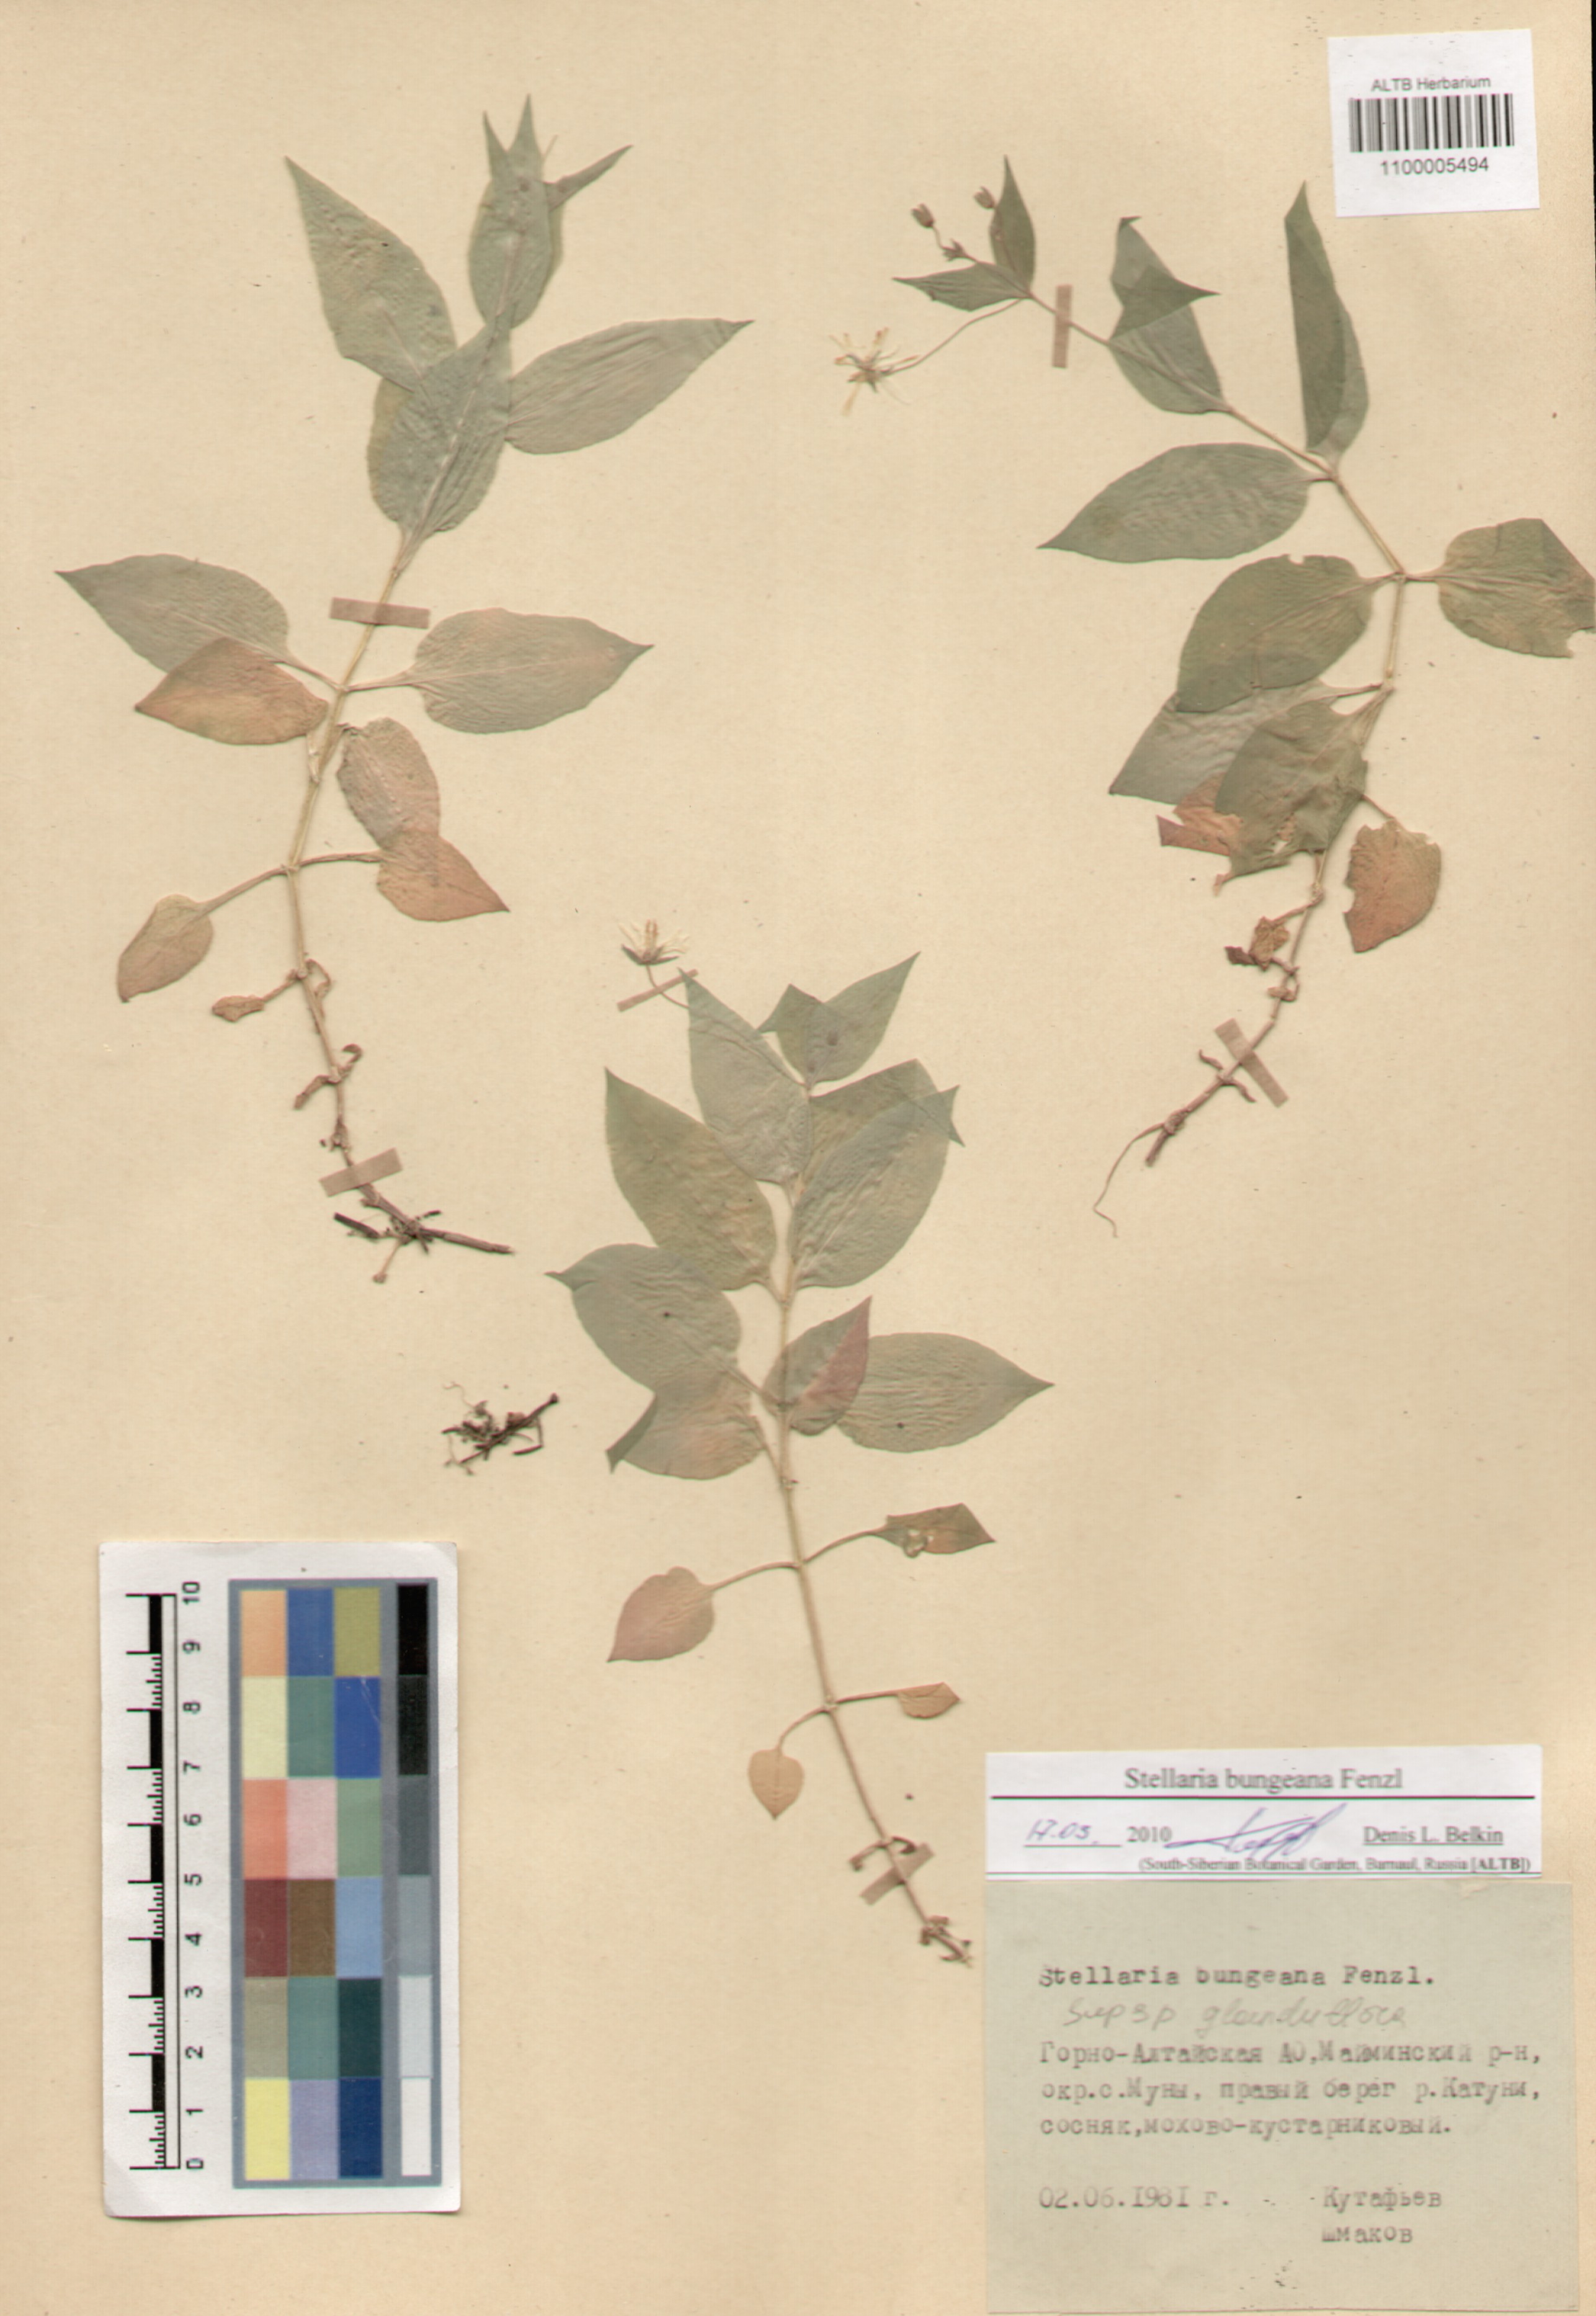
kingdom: Plantae
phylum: Tracheophyta
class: Magnoliopsida
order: Caryophyllales
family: Caryophyllaceae
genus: Stellaria
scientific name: Stellaria bungeana
